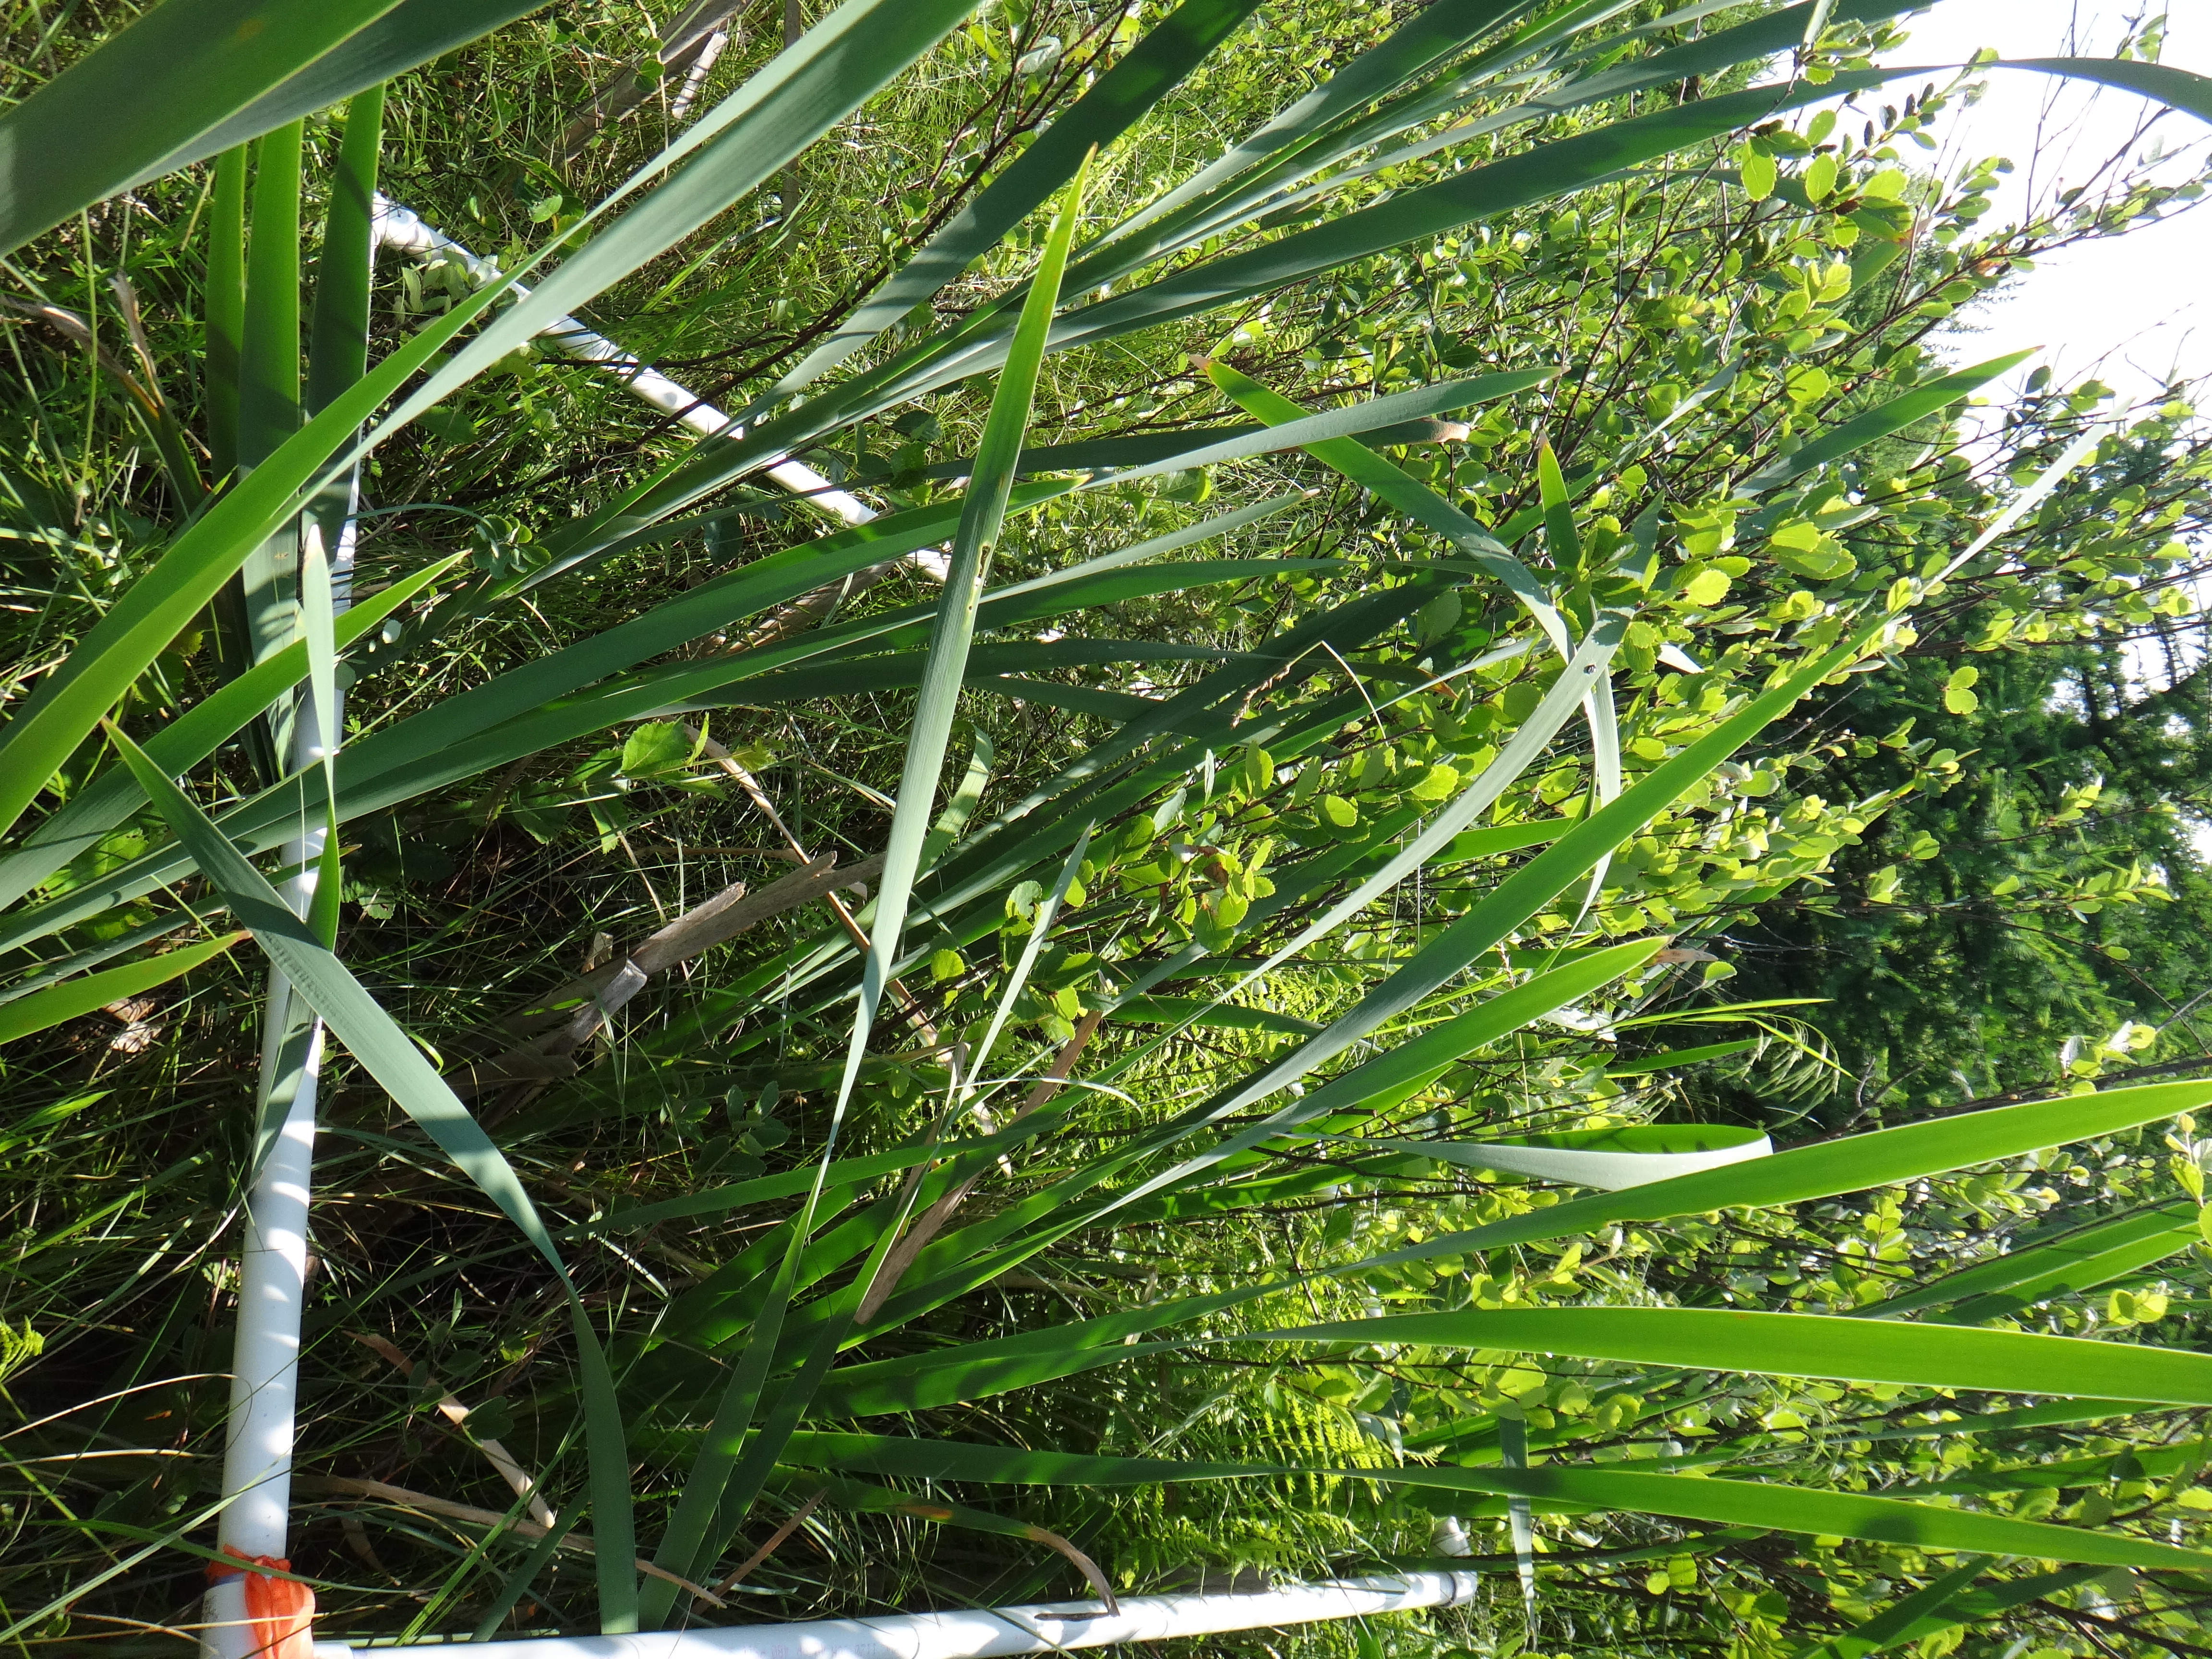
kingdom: Plantae
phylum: Tracheophyta
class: Magnoliopsida
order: Malpighiales
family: Salicaceae
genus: Salix
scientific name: Salix candida
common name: Hoary willow
